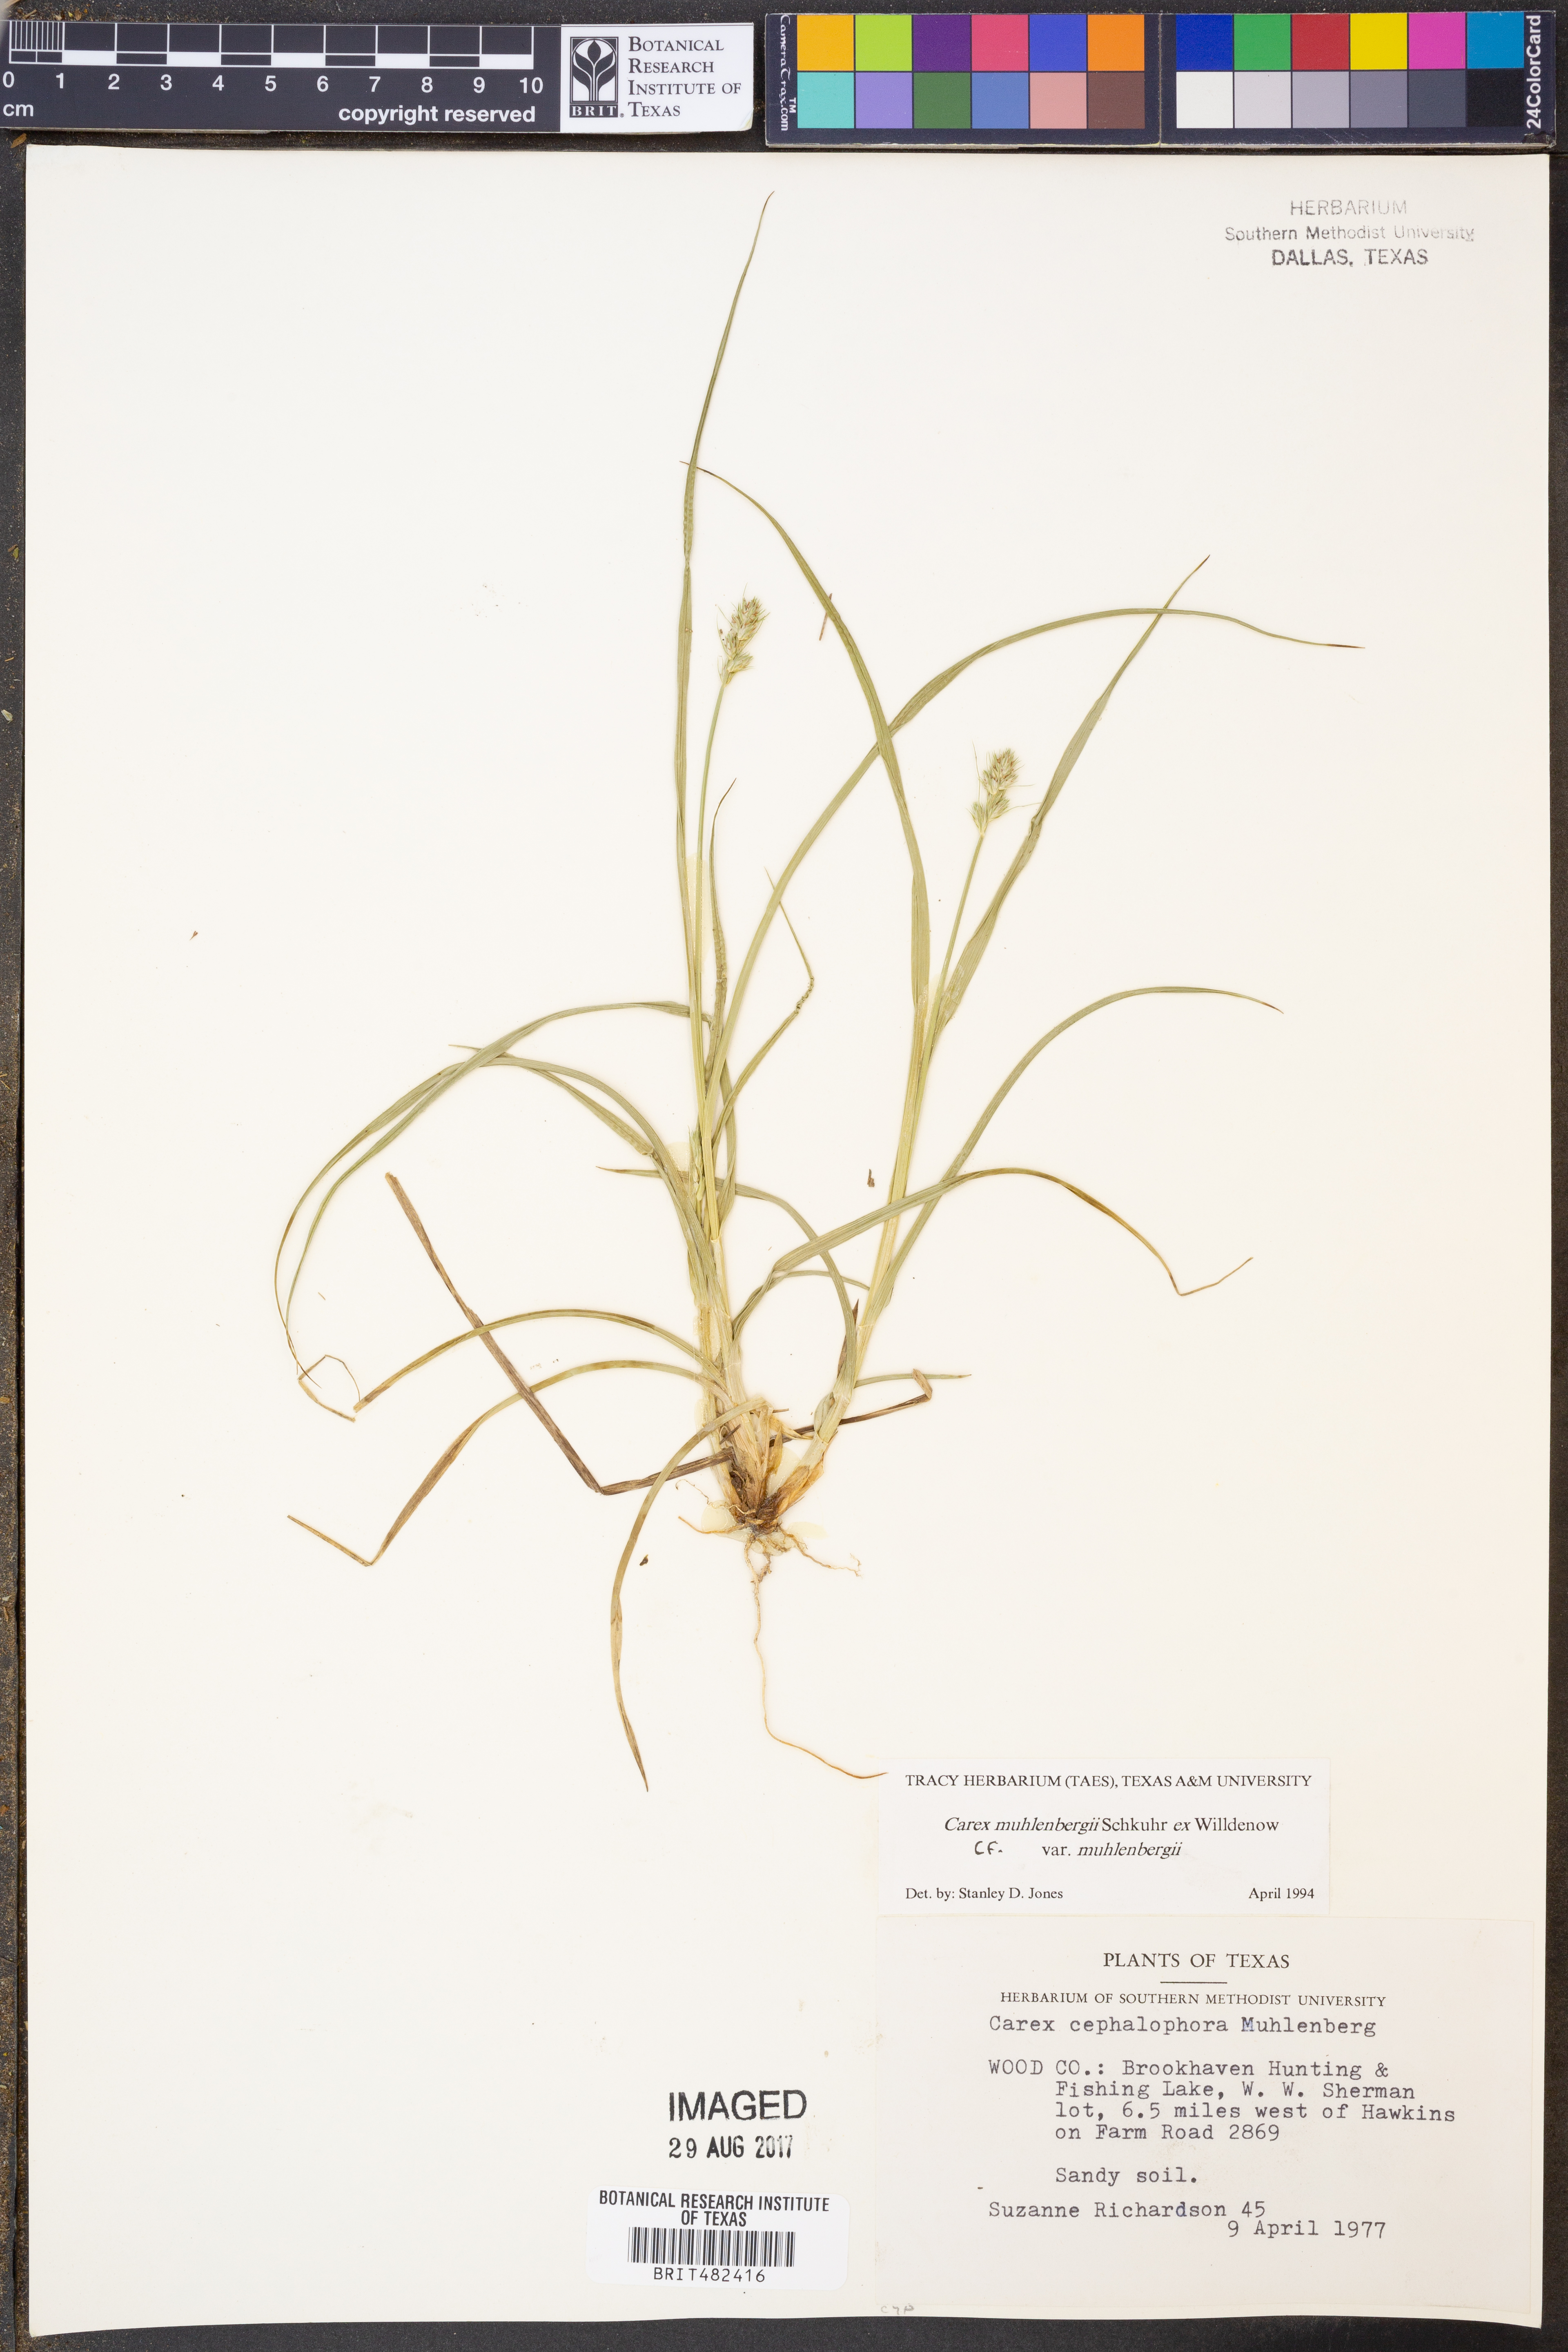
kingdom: Plantae
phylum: Tracheophyta
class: Liliopsida
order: Poales
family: Cyperaceae
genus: Carex
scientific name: Carex muehlenbergii
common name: Muhlenberg's bracted sedge
